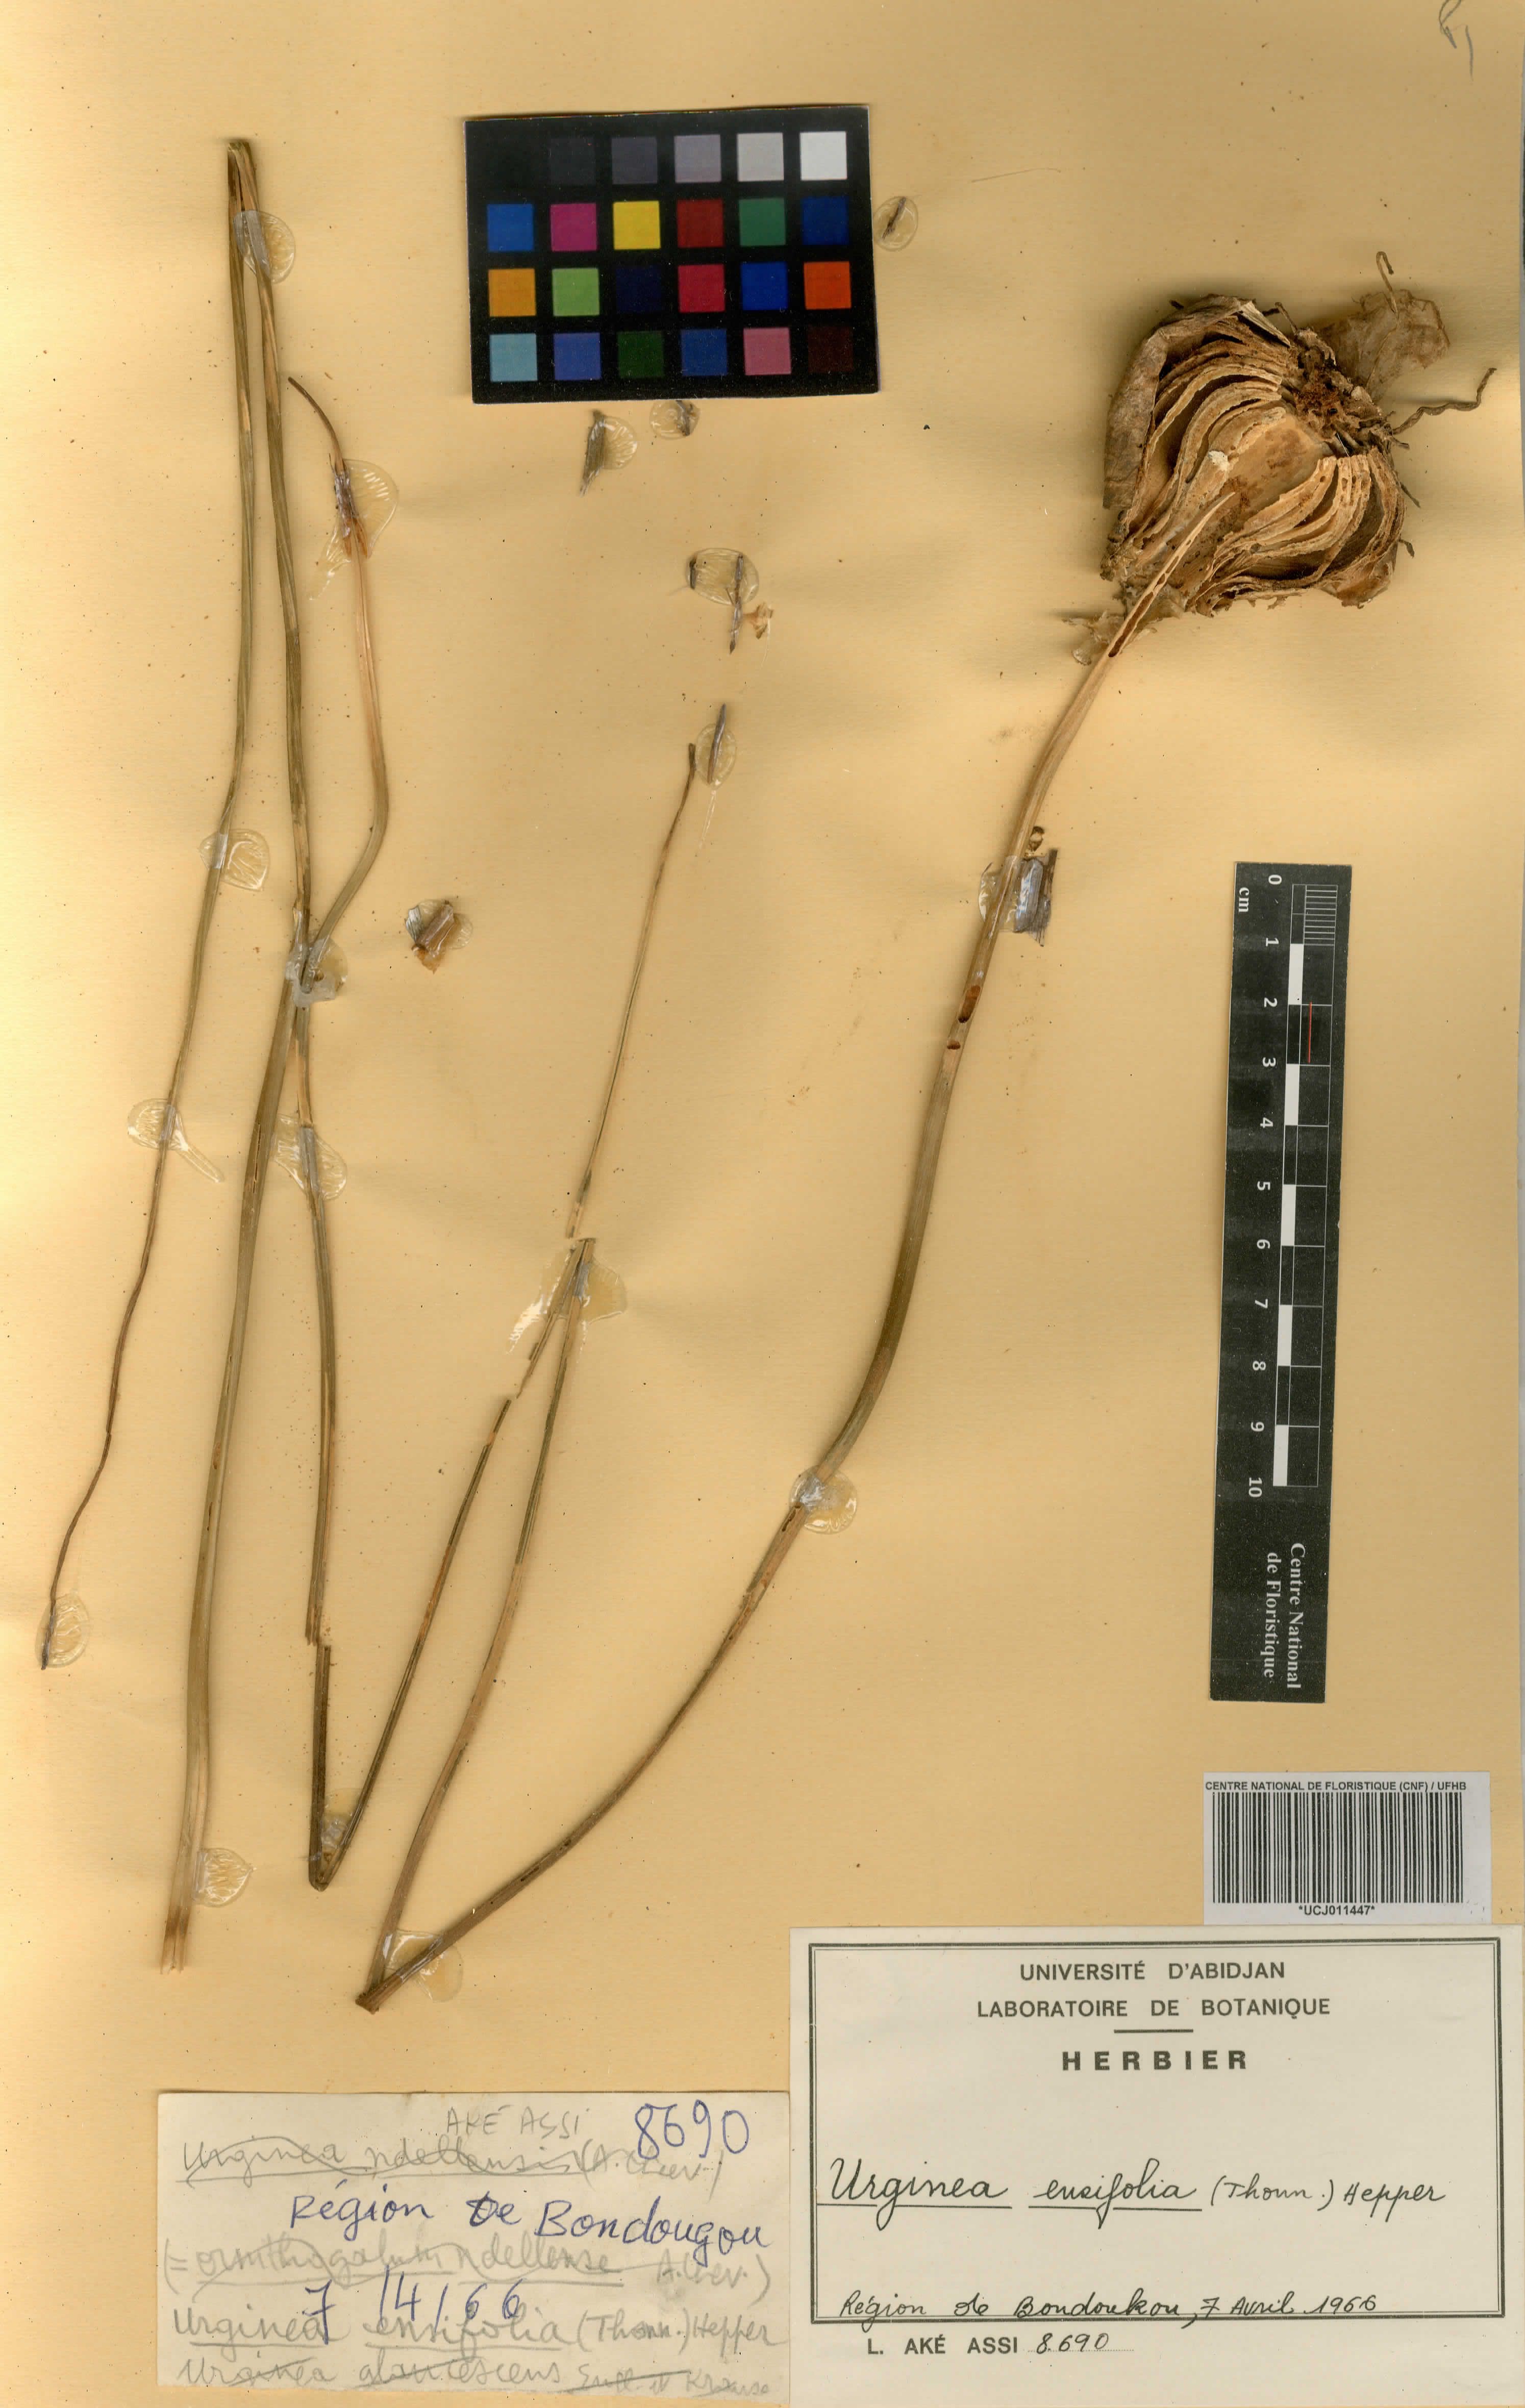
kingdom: Plantae
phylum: Tracheophyta
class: Liliopsida
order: Asparagales
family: Asparagaceae
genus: Drimia
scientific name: Drimia glaucescens
